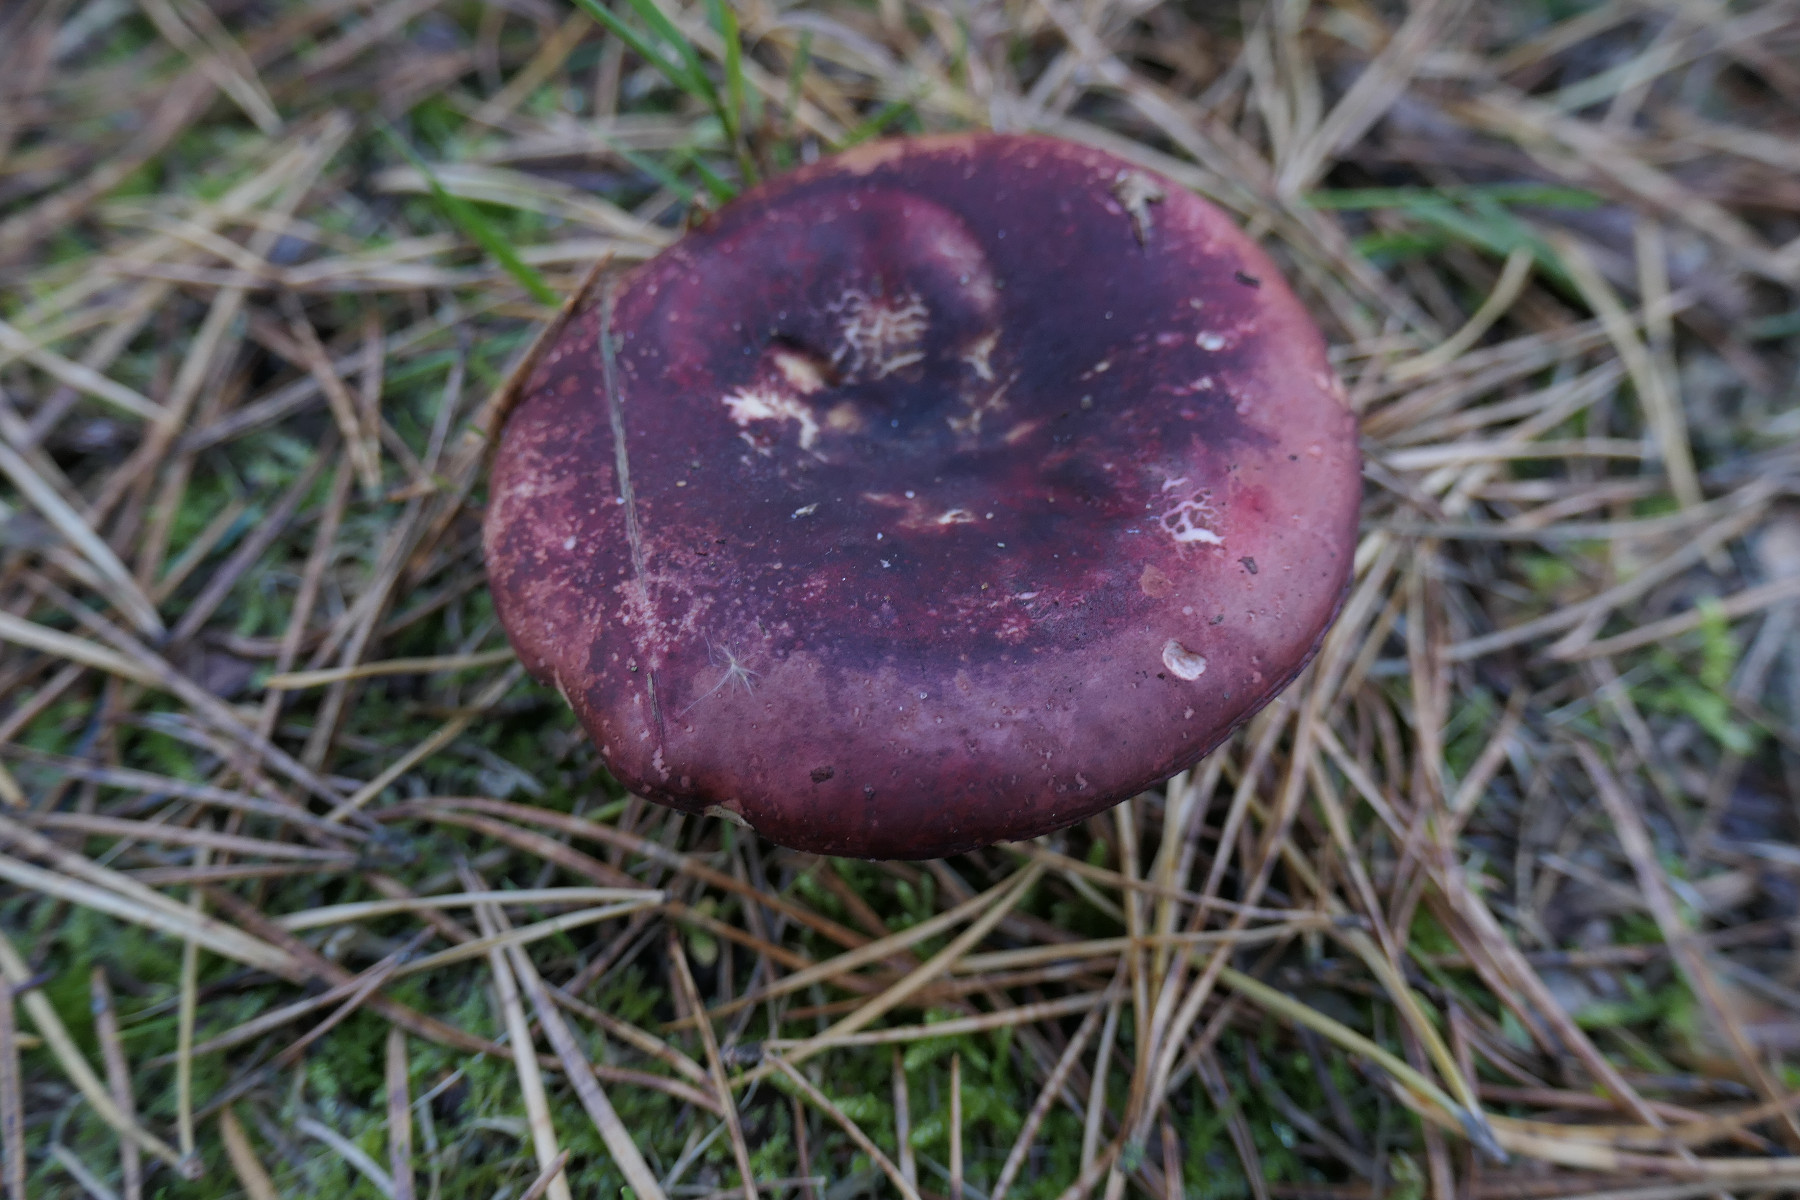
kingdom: Fungi
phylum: Basidiomycota
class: Agaricomycetes
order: Russulales
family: Russulaceae
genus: Russula
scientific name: Russula sardonia
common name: citronbladet skørhat
